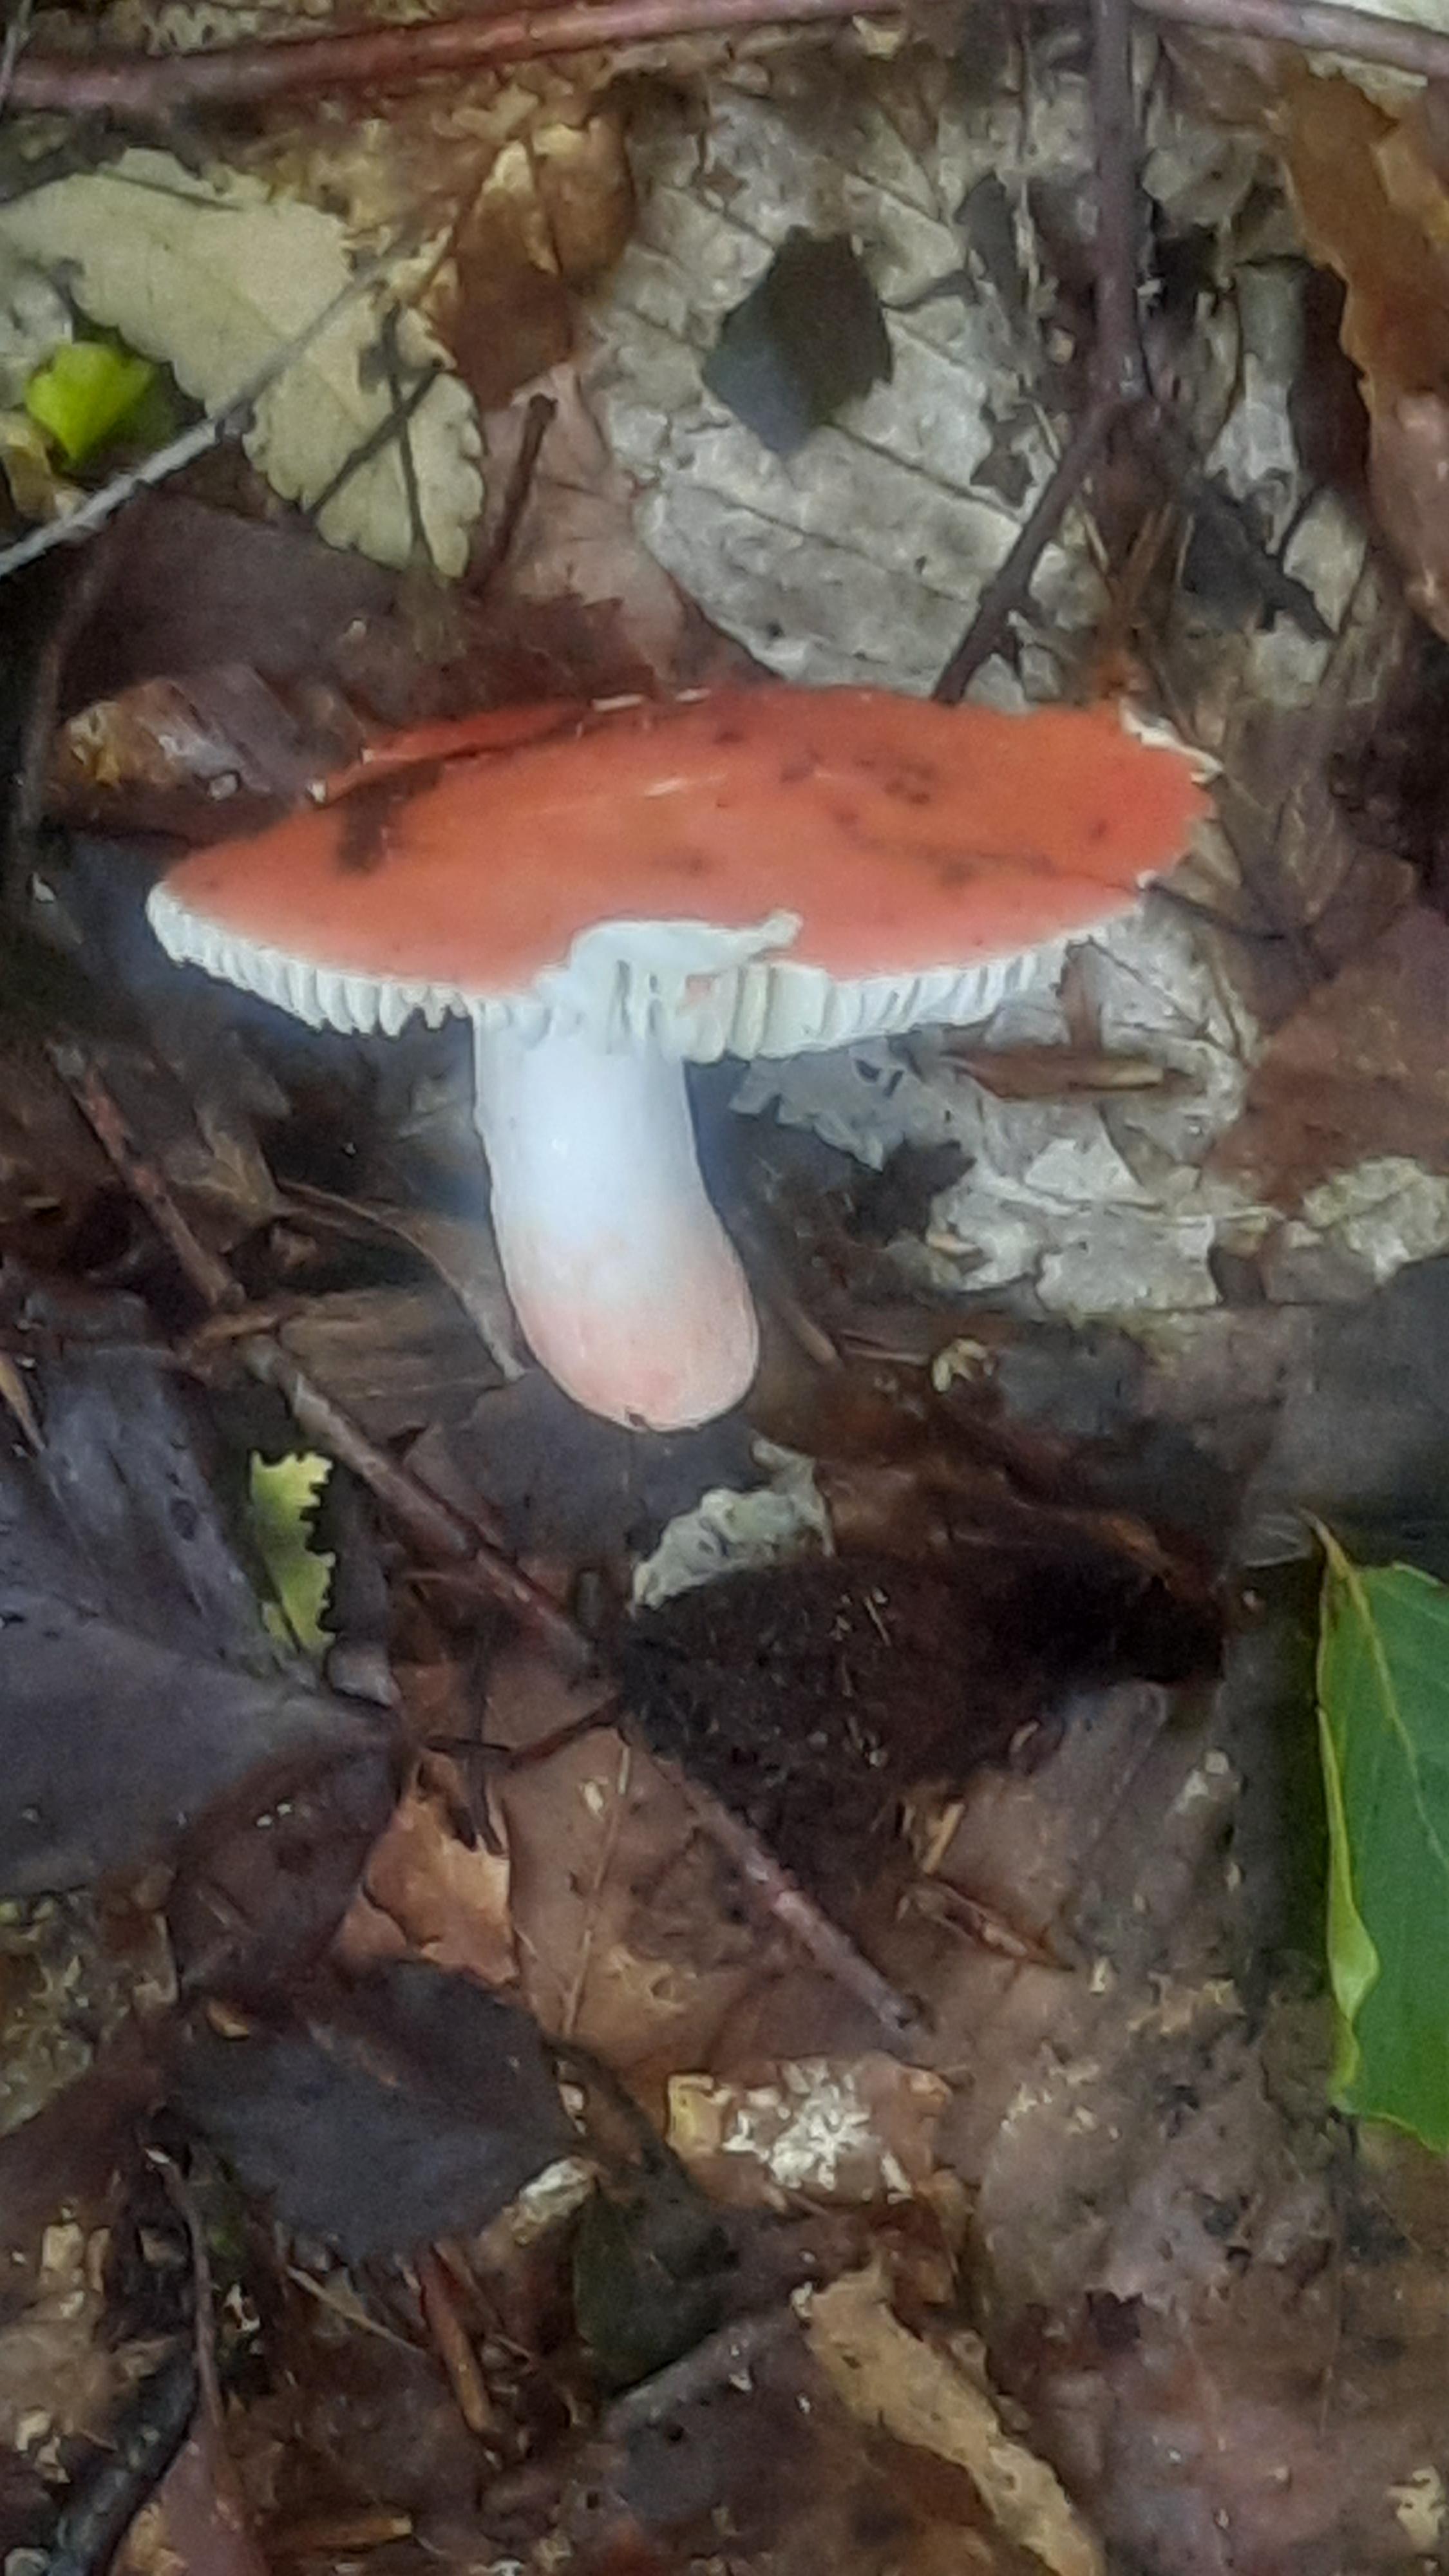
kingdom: Fungi
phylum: Basidiomycota
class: Agaricomycetes
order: Russulales
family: Russulaceae
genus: Russula
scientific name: Russula rosea
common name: fastkødet skørhat
